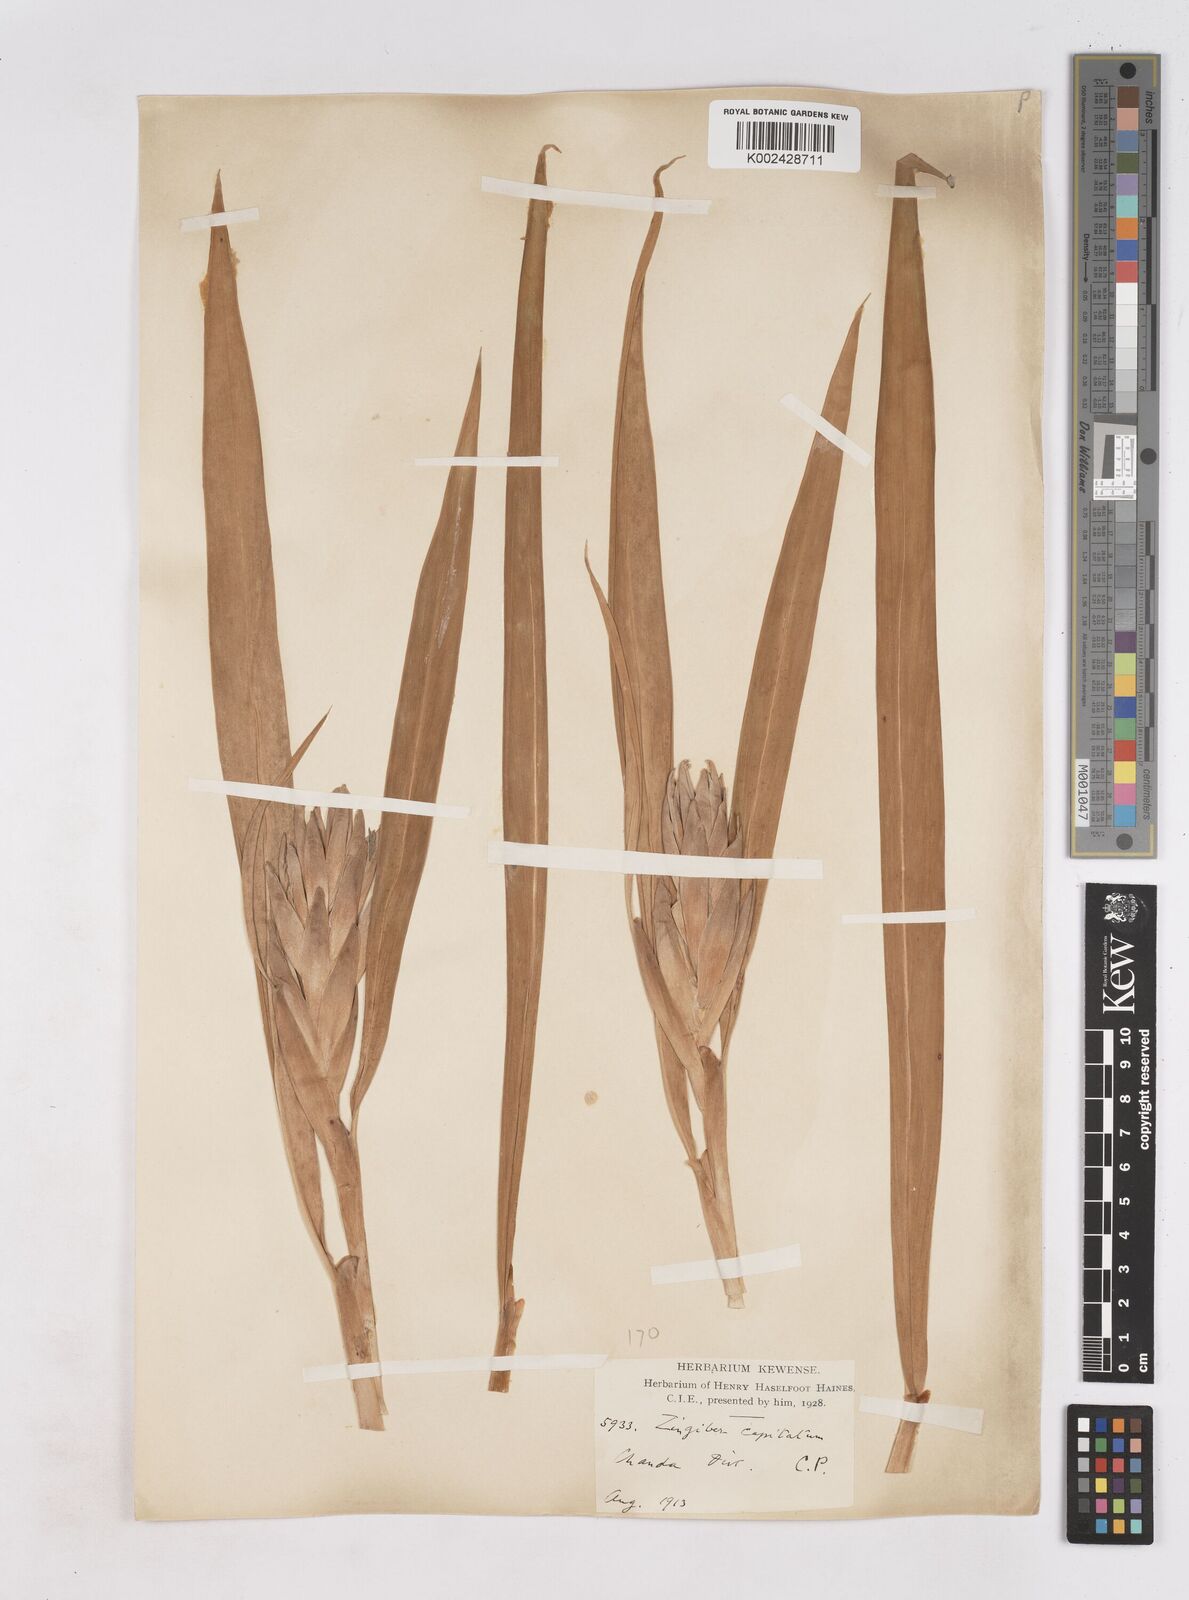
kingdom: Plantae
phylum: Tracheophyta
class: Liliopsida
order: Zingiberales
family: Zingiberaceae
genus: Zingiber
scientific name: Zingiber capitatum
